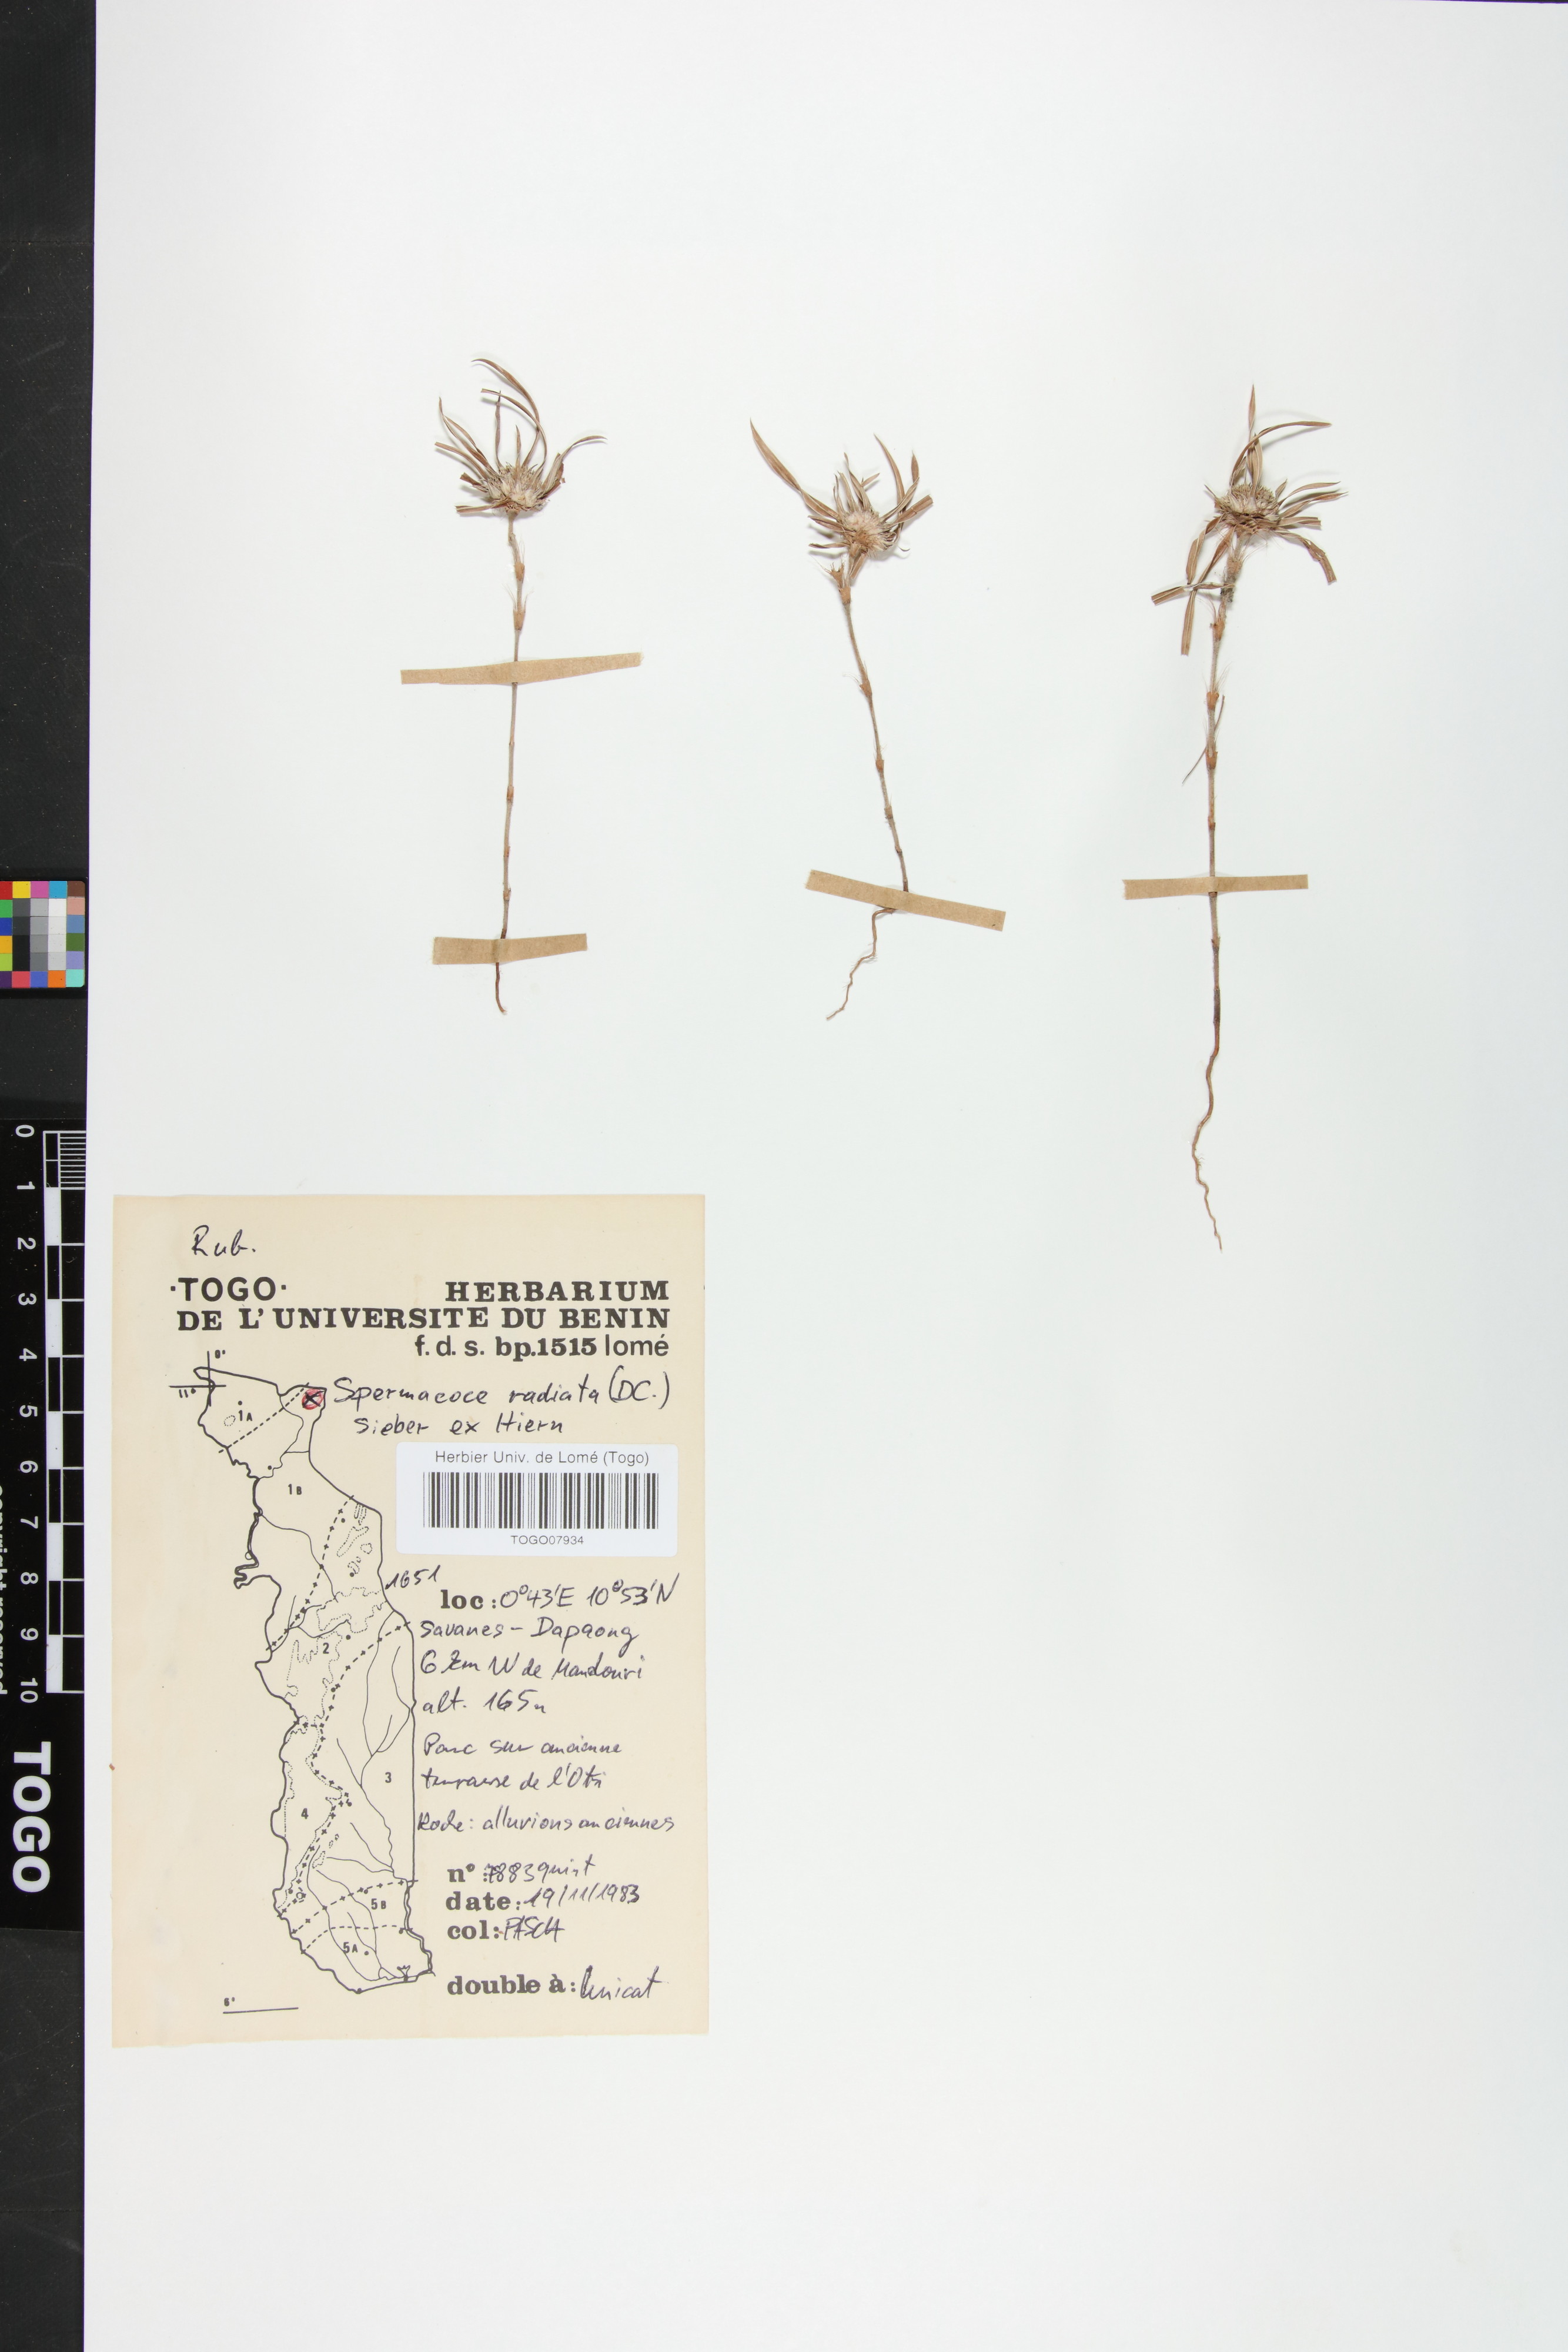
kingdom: Plantae
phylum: Tracheophyta
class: Magnoliopsida
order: Gentianales
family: Rubiaceae
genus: Spermacoce
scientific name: Spermacoce radiata
